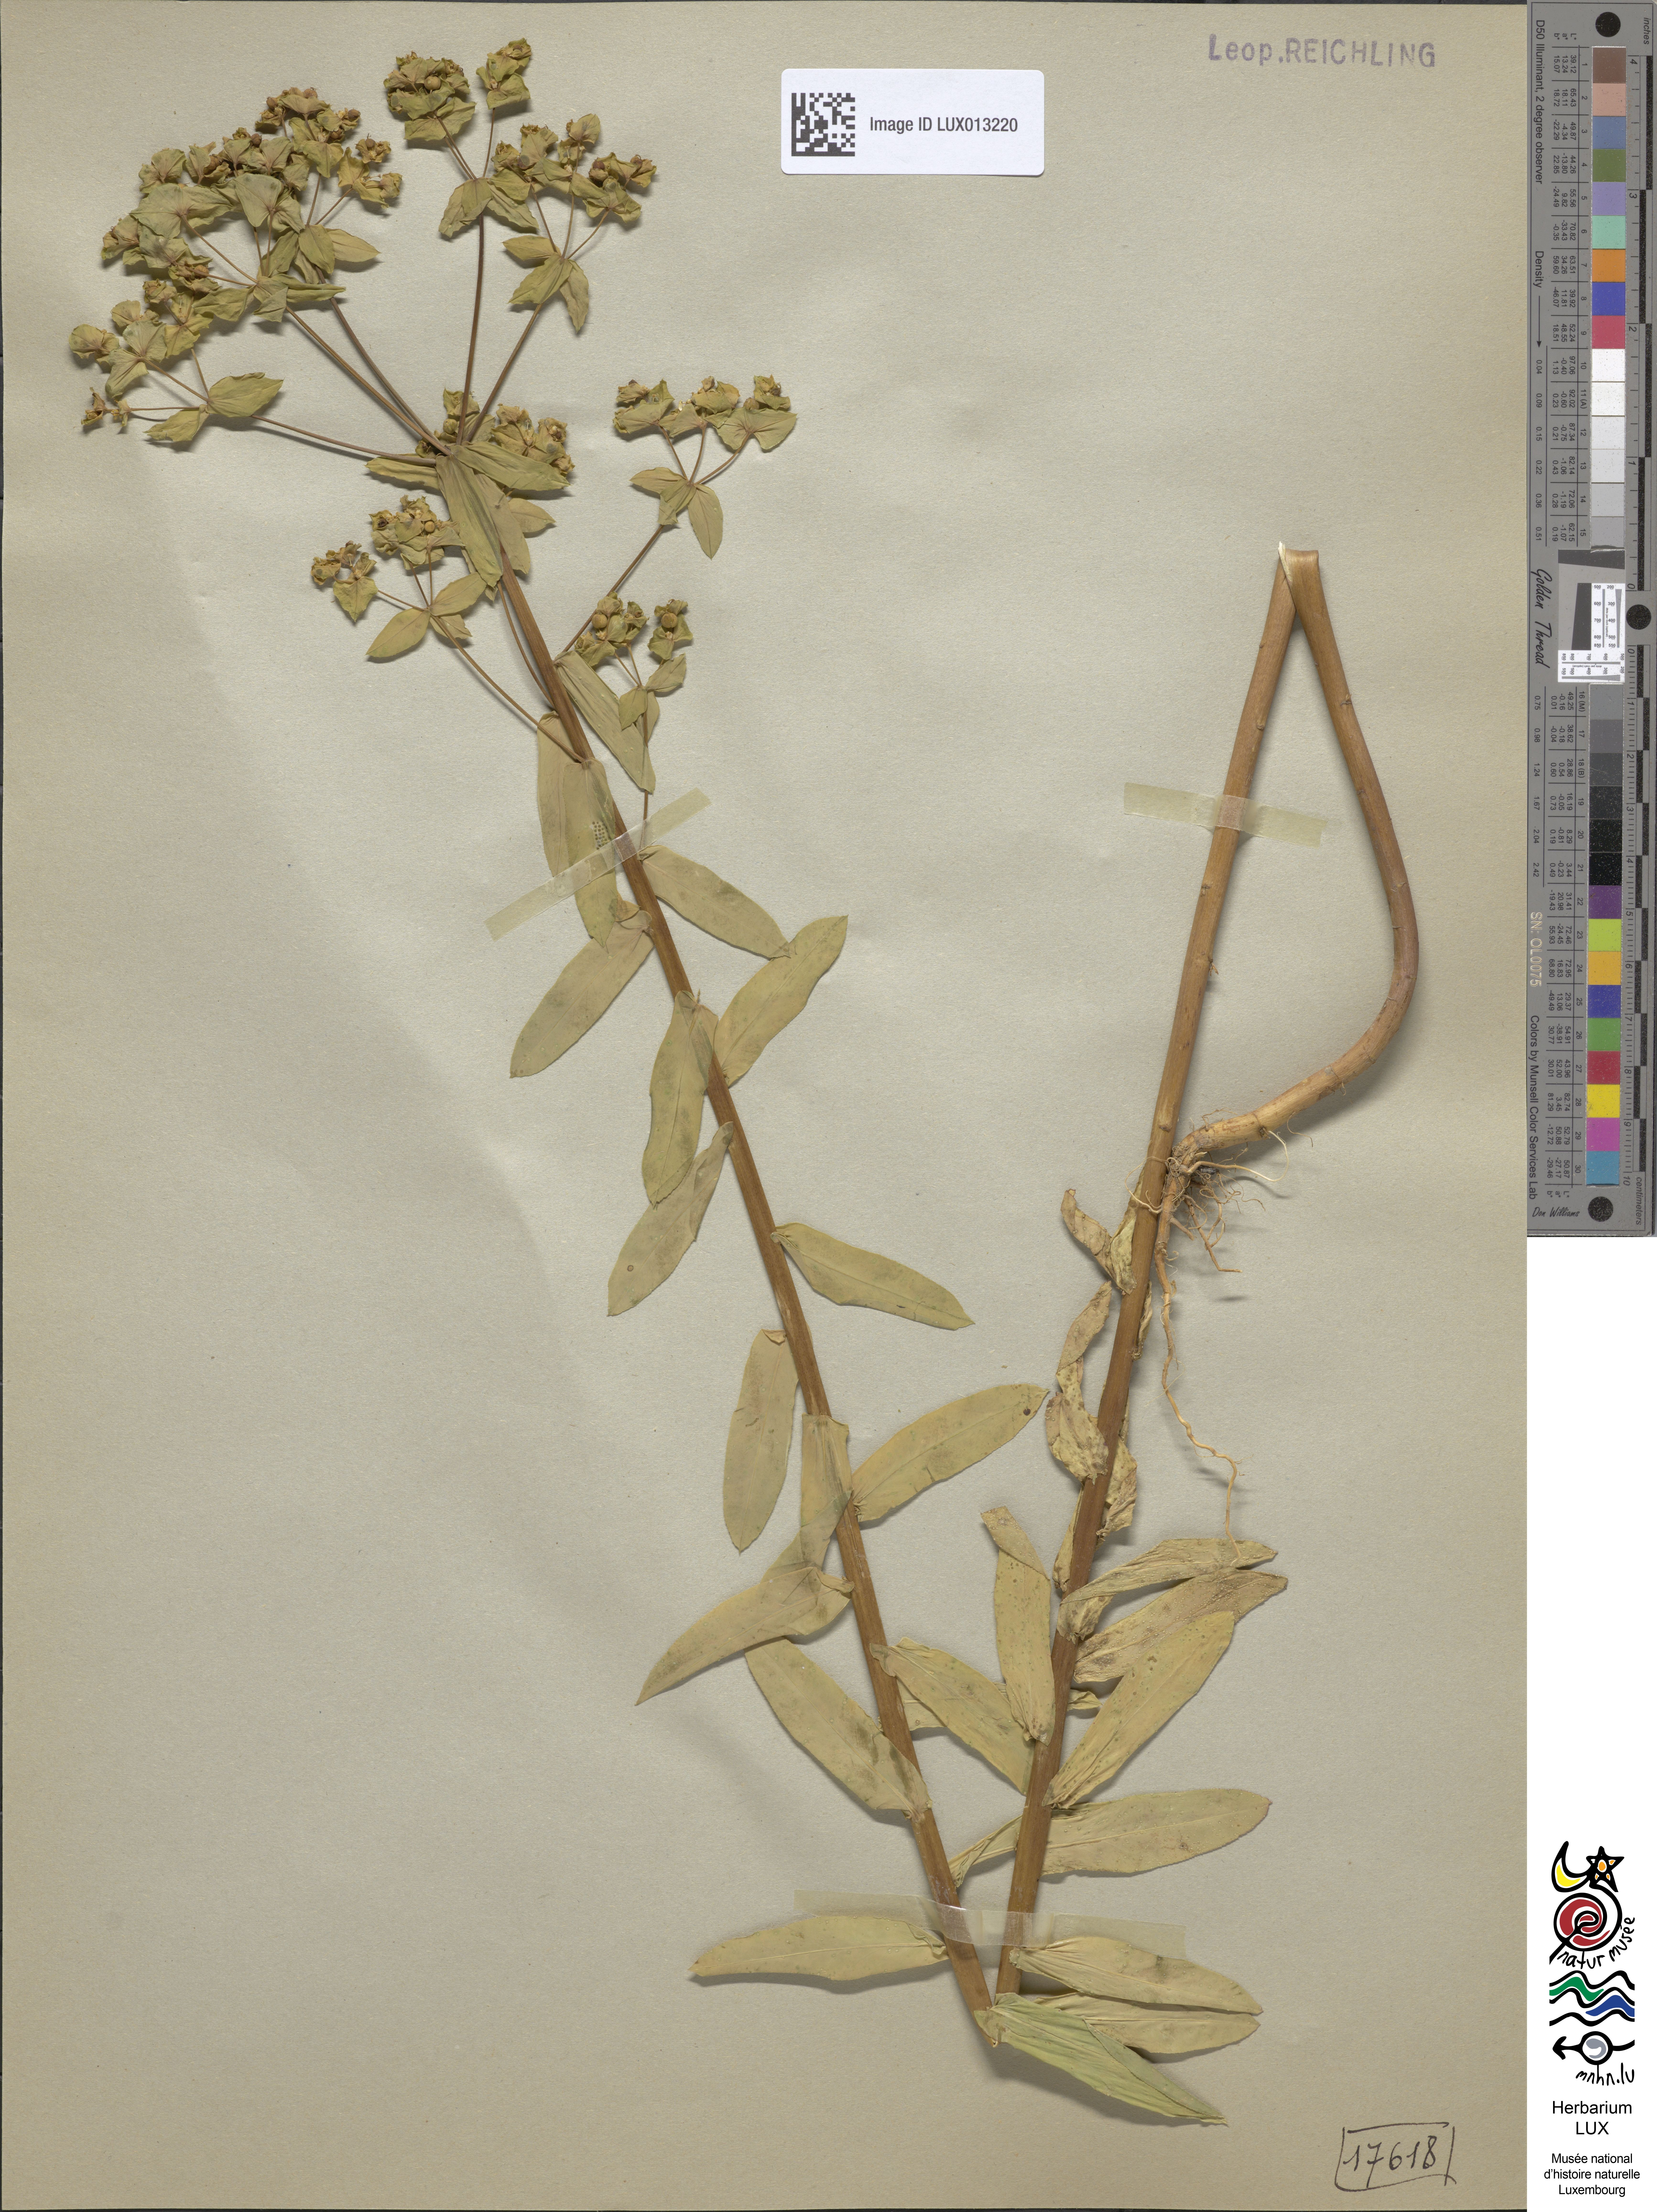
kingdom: Plantae
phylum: Tracheophyta
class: Magnoliopsida
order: Malpighiales
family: Euphorbiaceae
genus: Euphorbia
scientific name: Euphorbia platyphyllos
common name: Broad-leaved spurge
